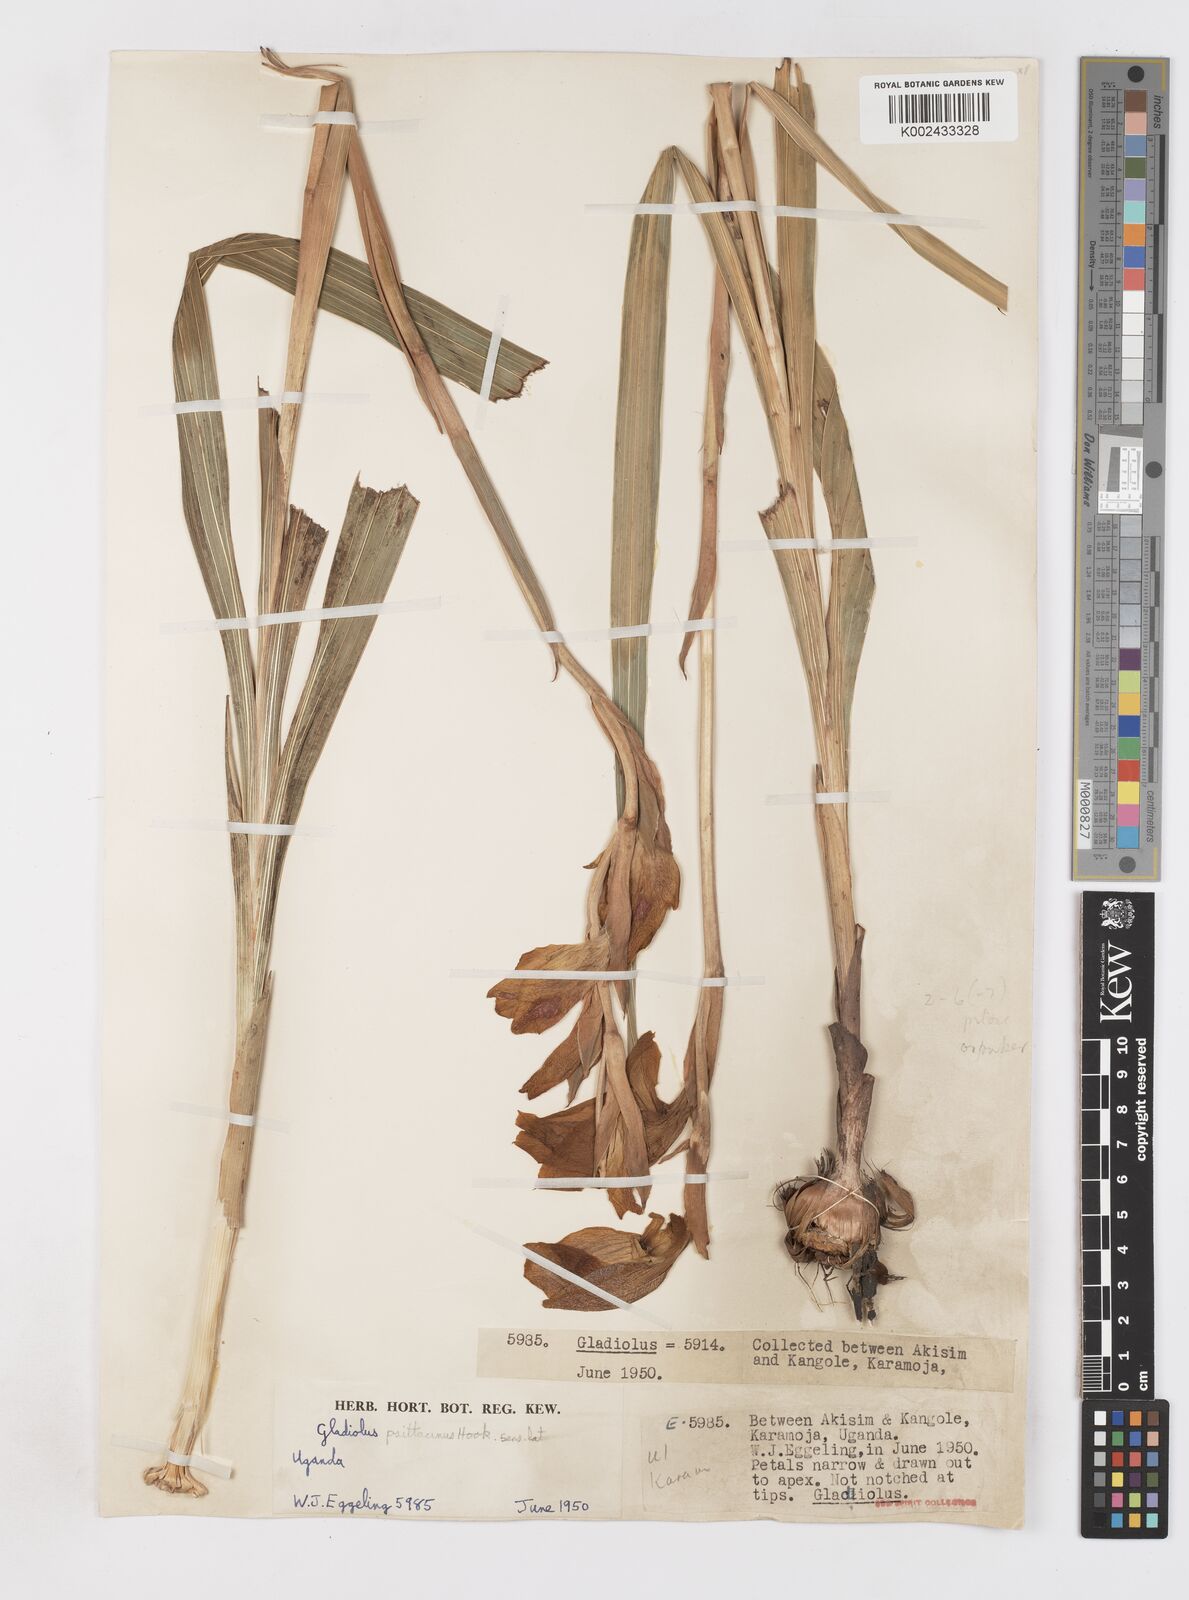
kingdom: Plantae
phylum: Tracheophyta
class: Liliopsida
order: Asparagales
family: Iridaceae
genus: Gladiolus
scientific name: Gladiolus dalenii
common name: Cornflag
